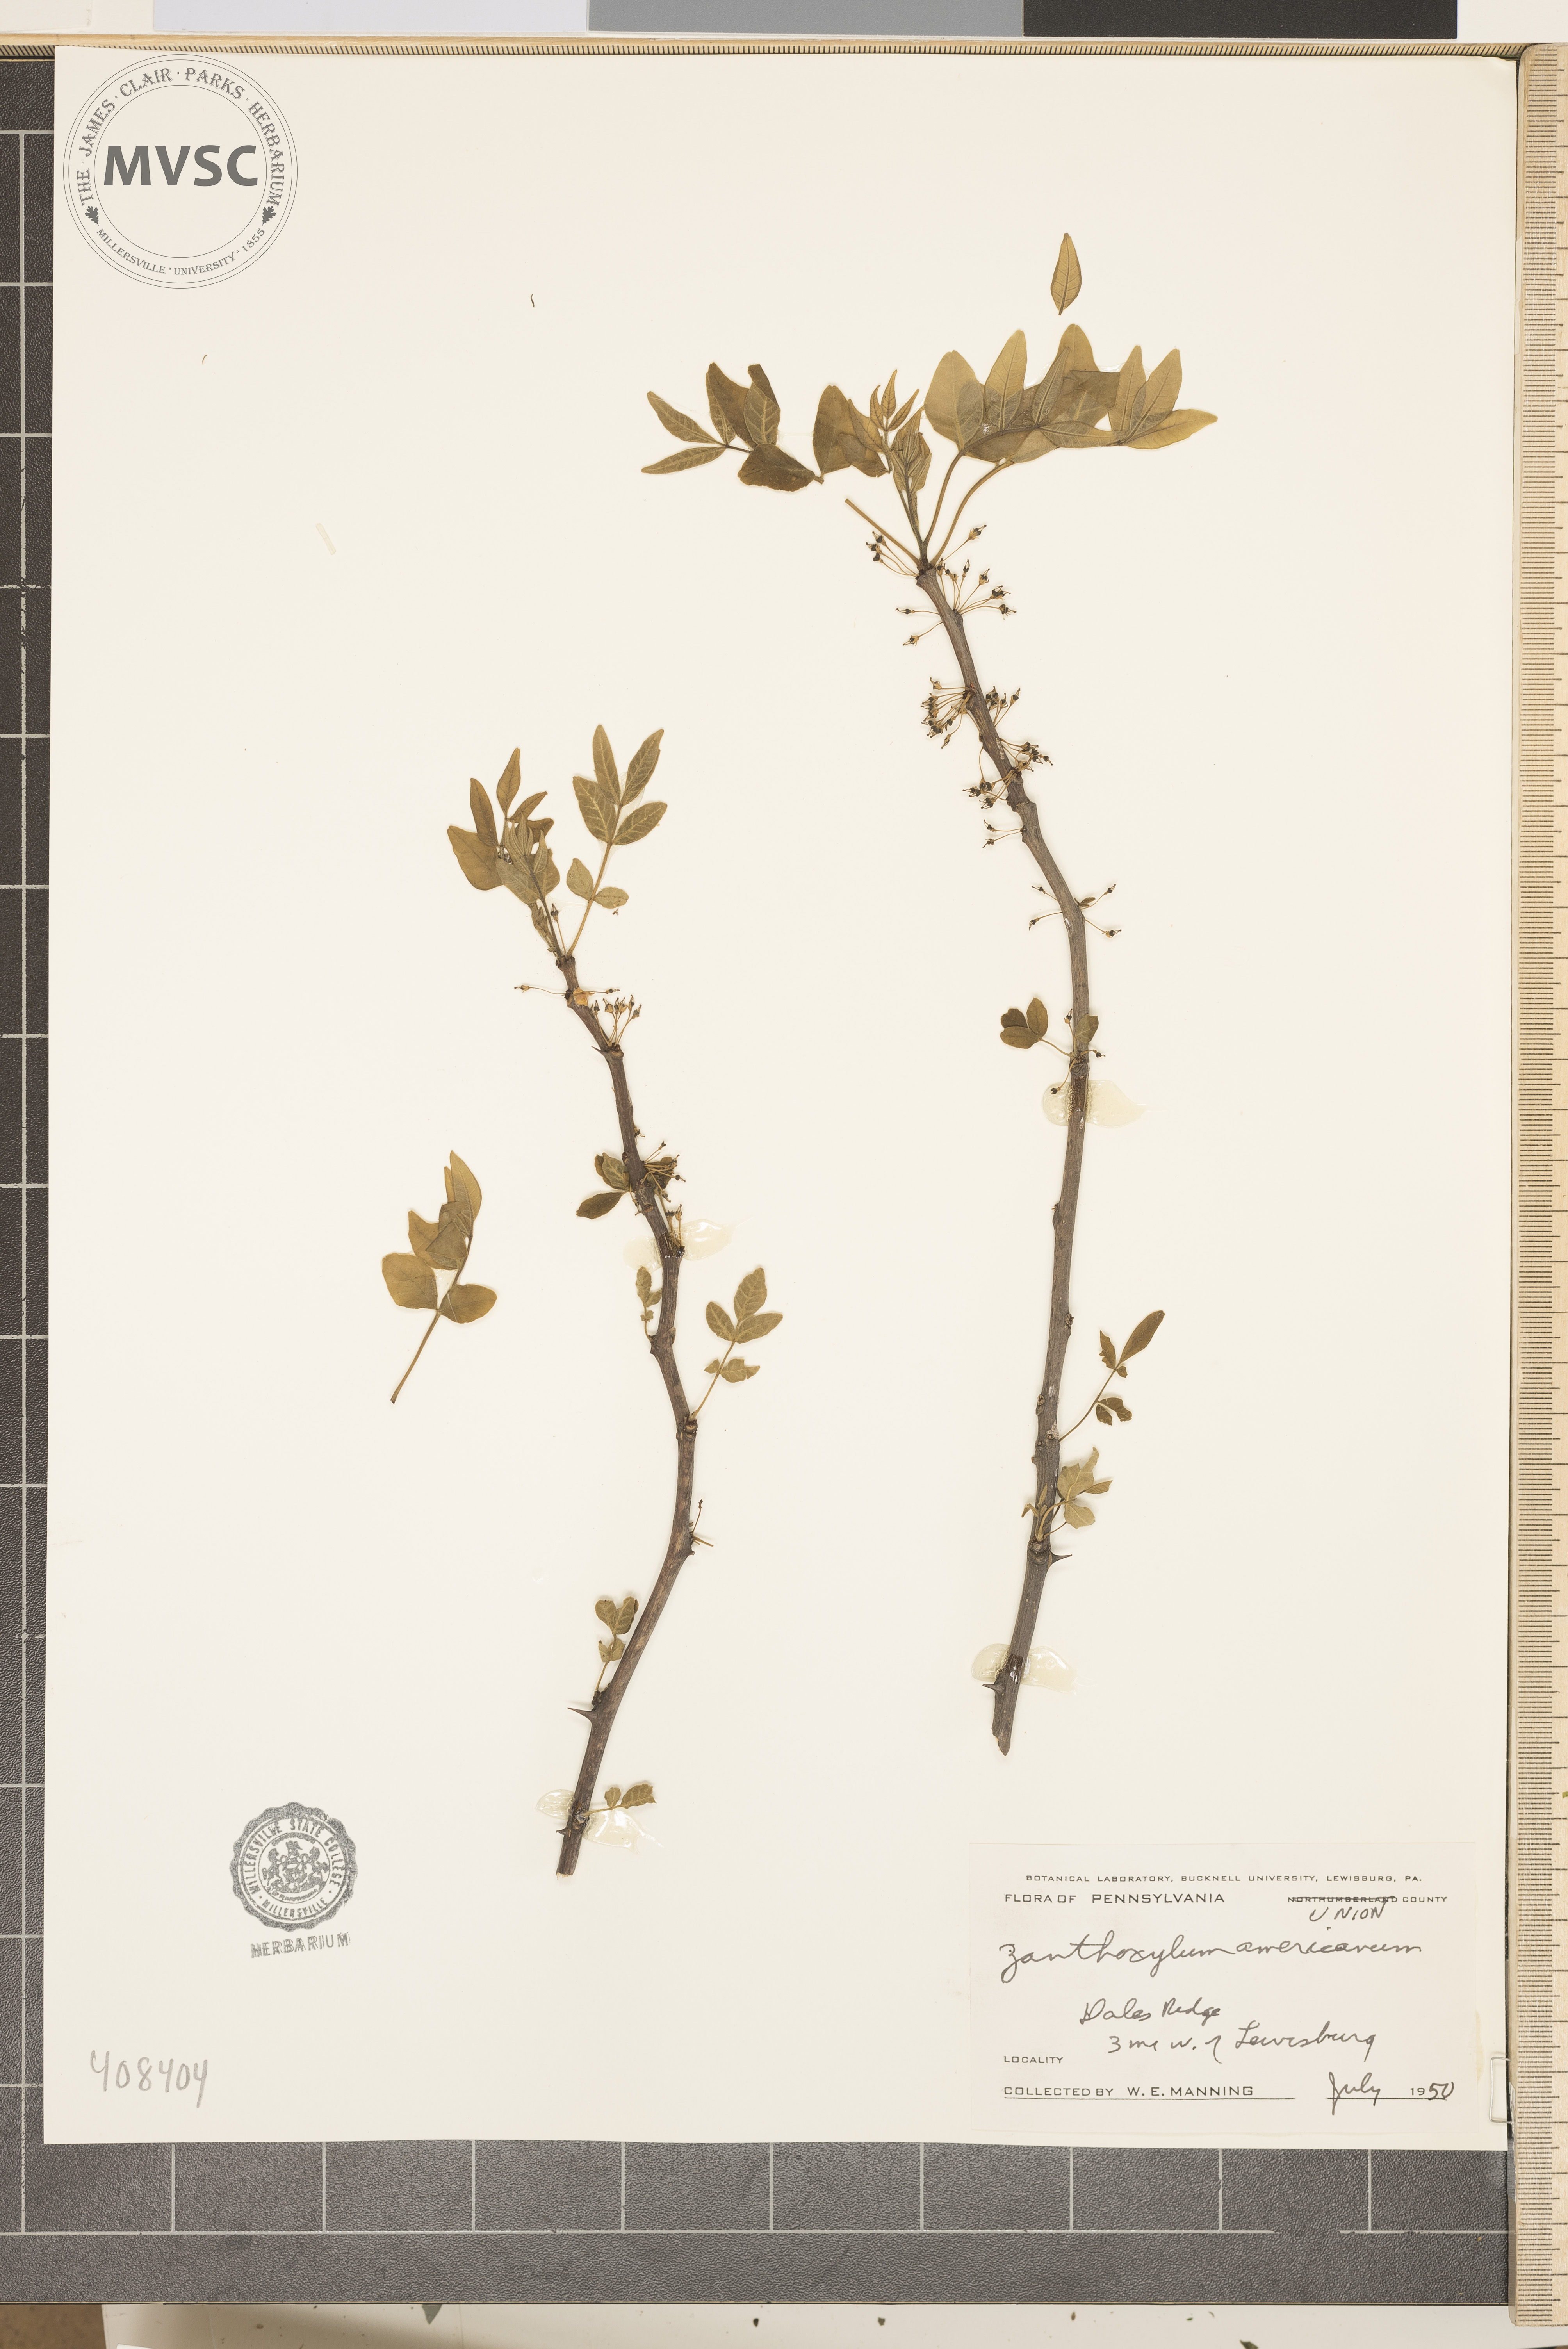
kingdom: Plantae
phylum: Tracheophyta
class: Magnoliopsida
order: Sapindales
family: Rutaceae
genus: Zanthoxylum
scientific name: Zanthoxylum americanum
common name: Northern prickly-ash
